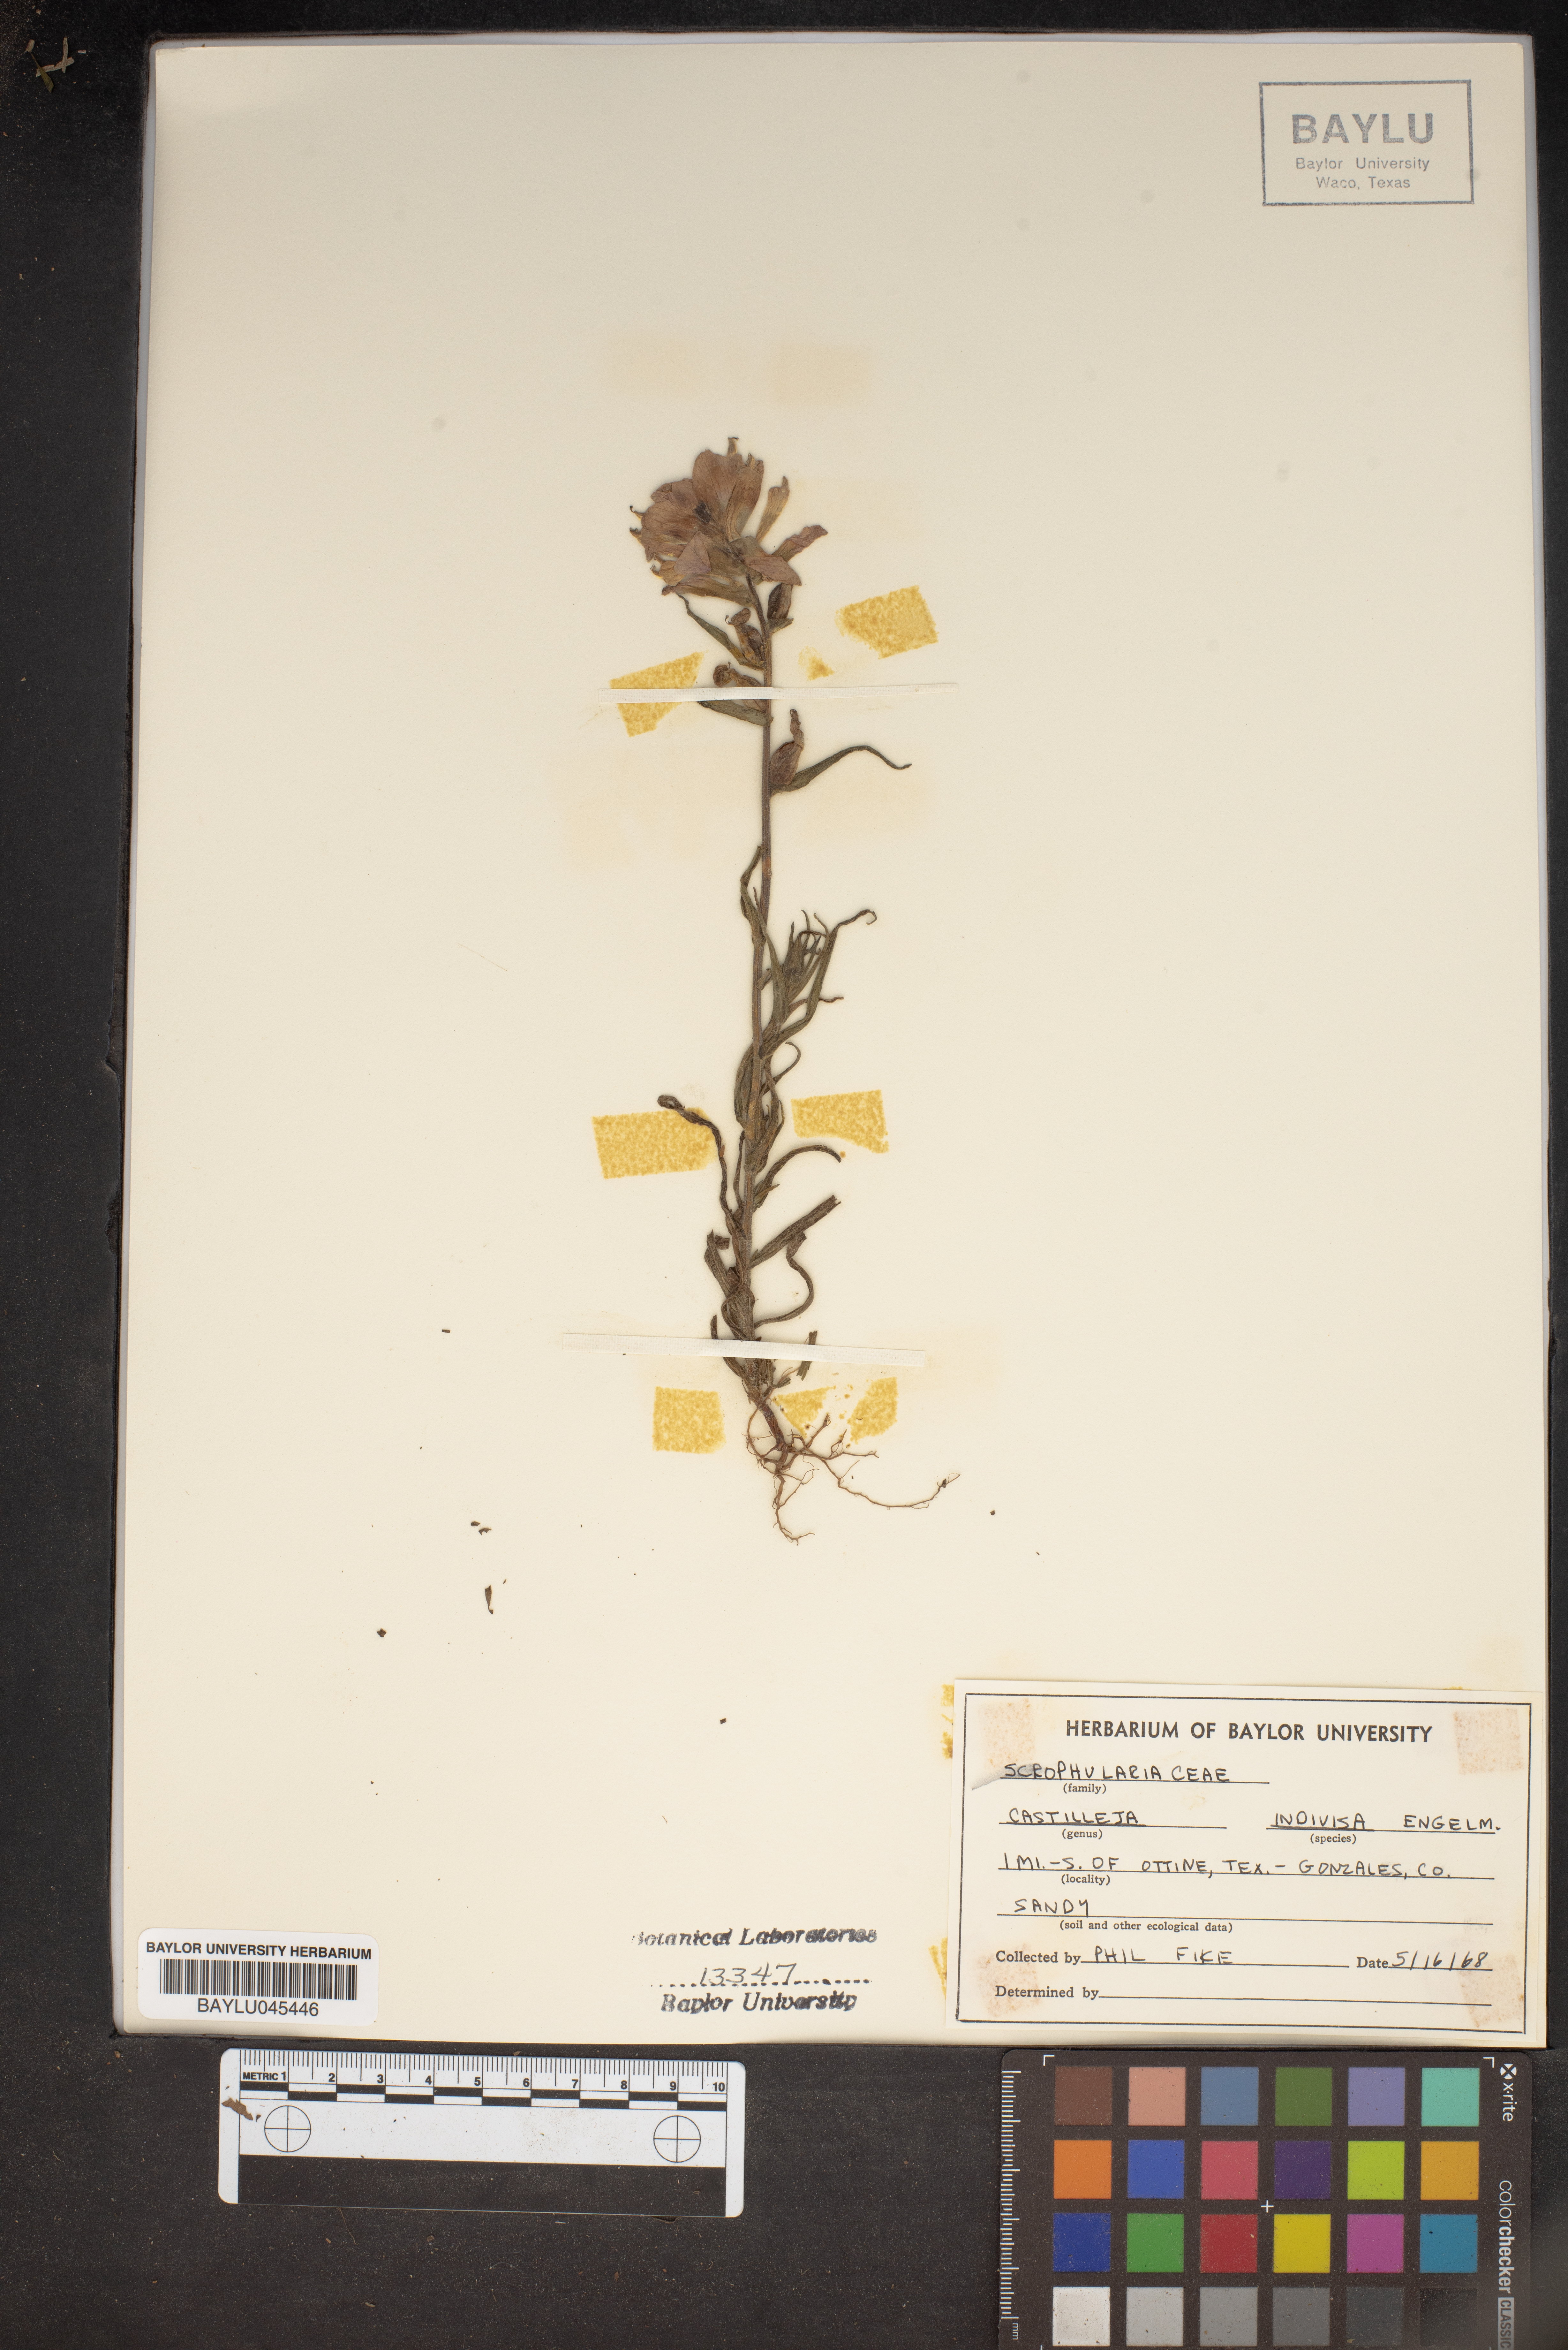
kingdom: Plantae
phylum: Tracheophyta
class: Magnoliopsida
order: Lamiales
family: Orobanchaceae
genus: Castilleja
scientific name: Castilleja indivisa
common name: Texas paintbrush
